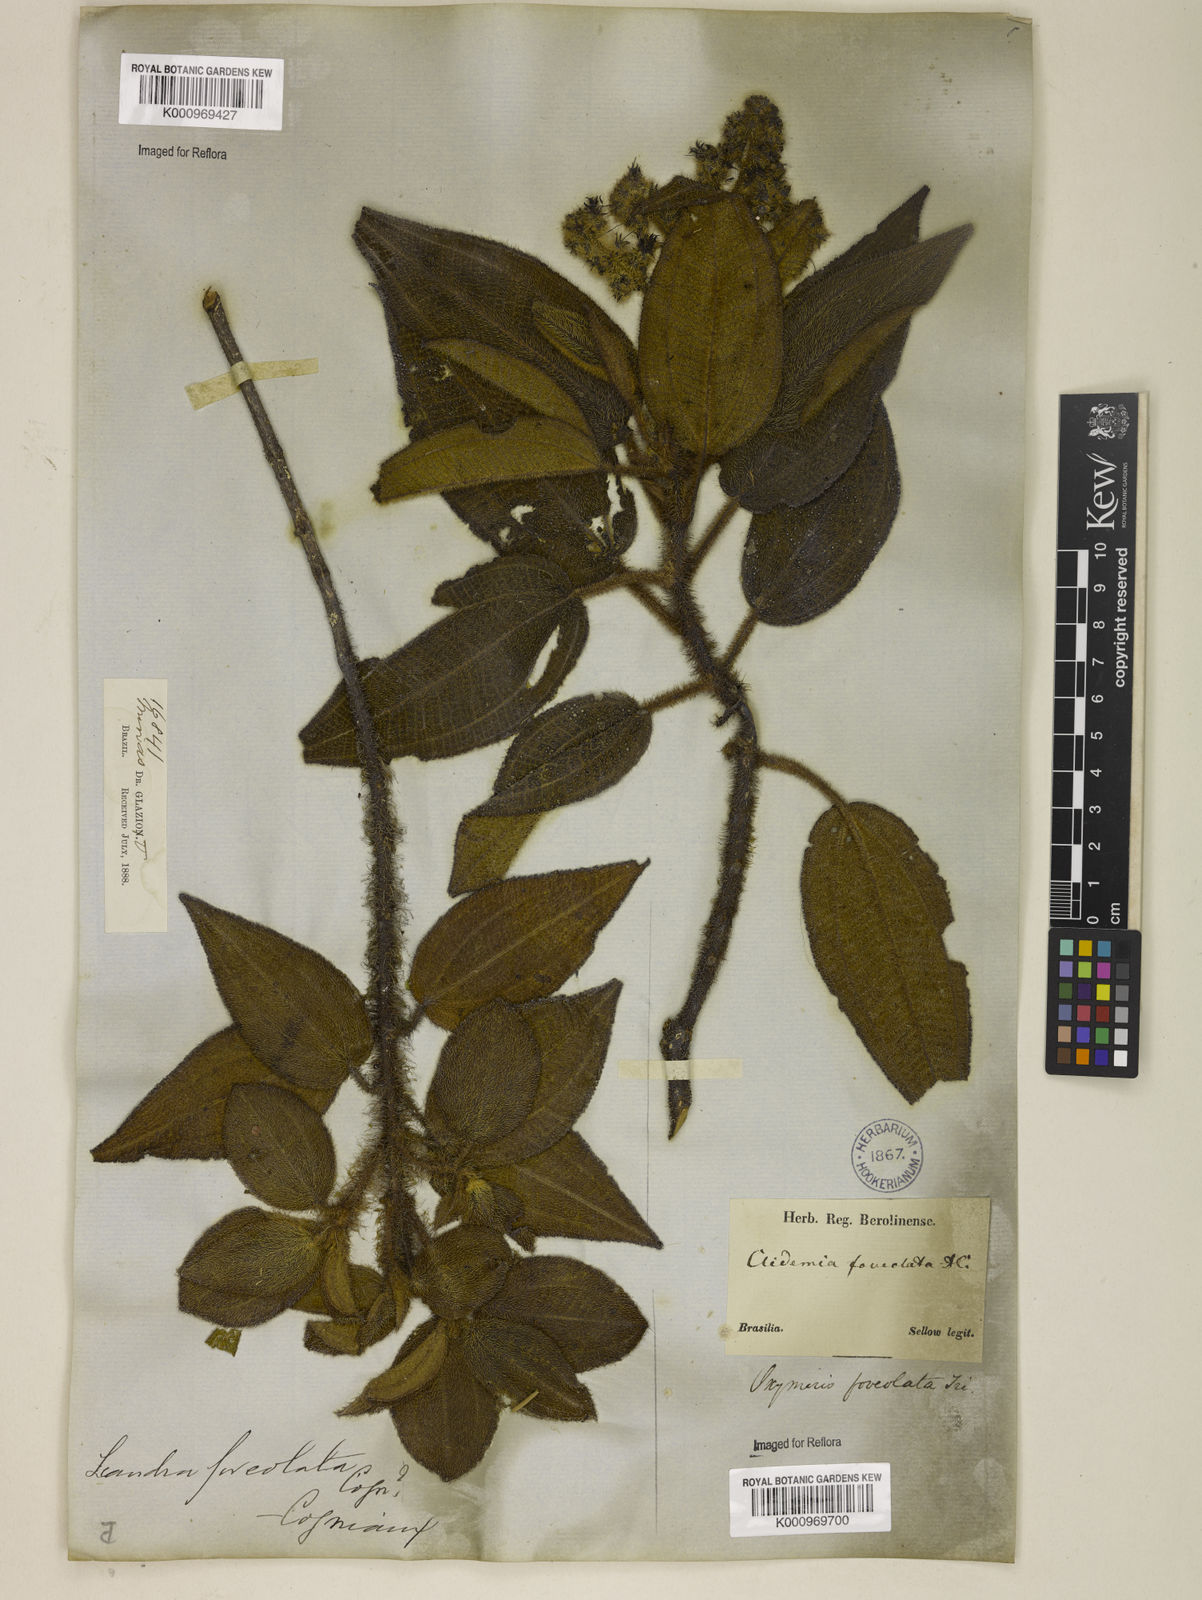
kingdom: Plantae
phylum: Tracheophyta
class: Magnoliopsida
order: Myrtales
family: Melastomataceae
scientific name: Melastomataceae
